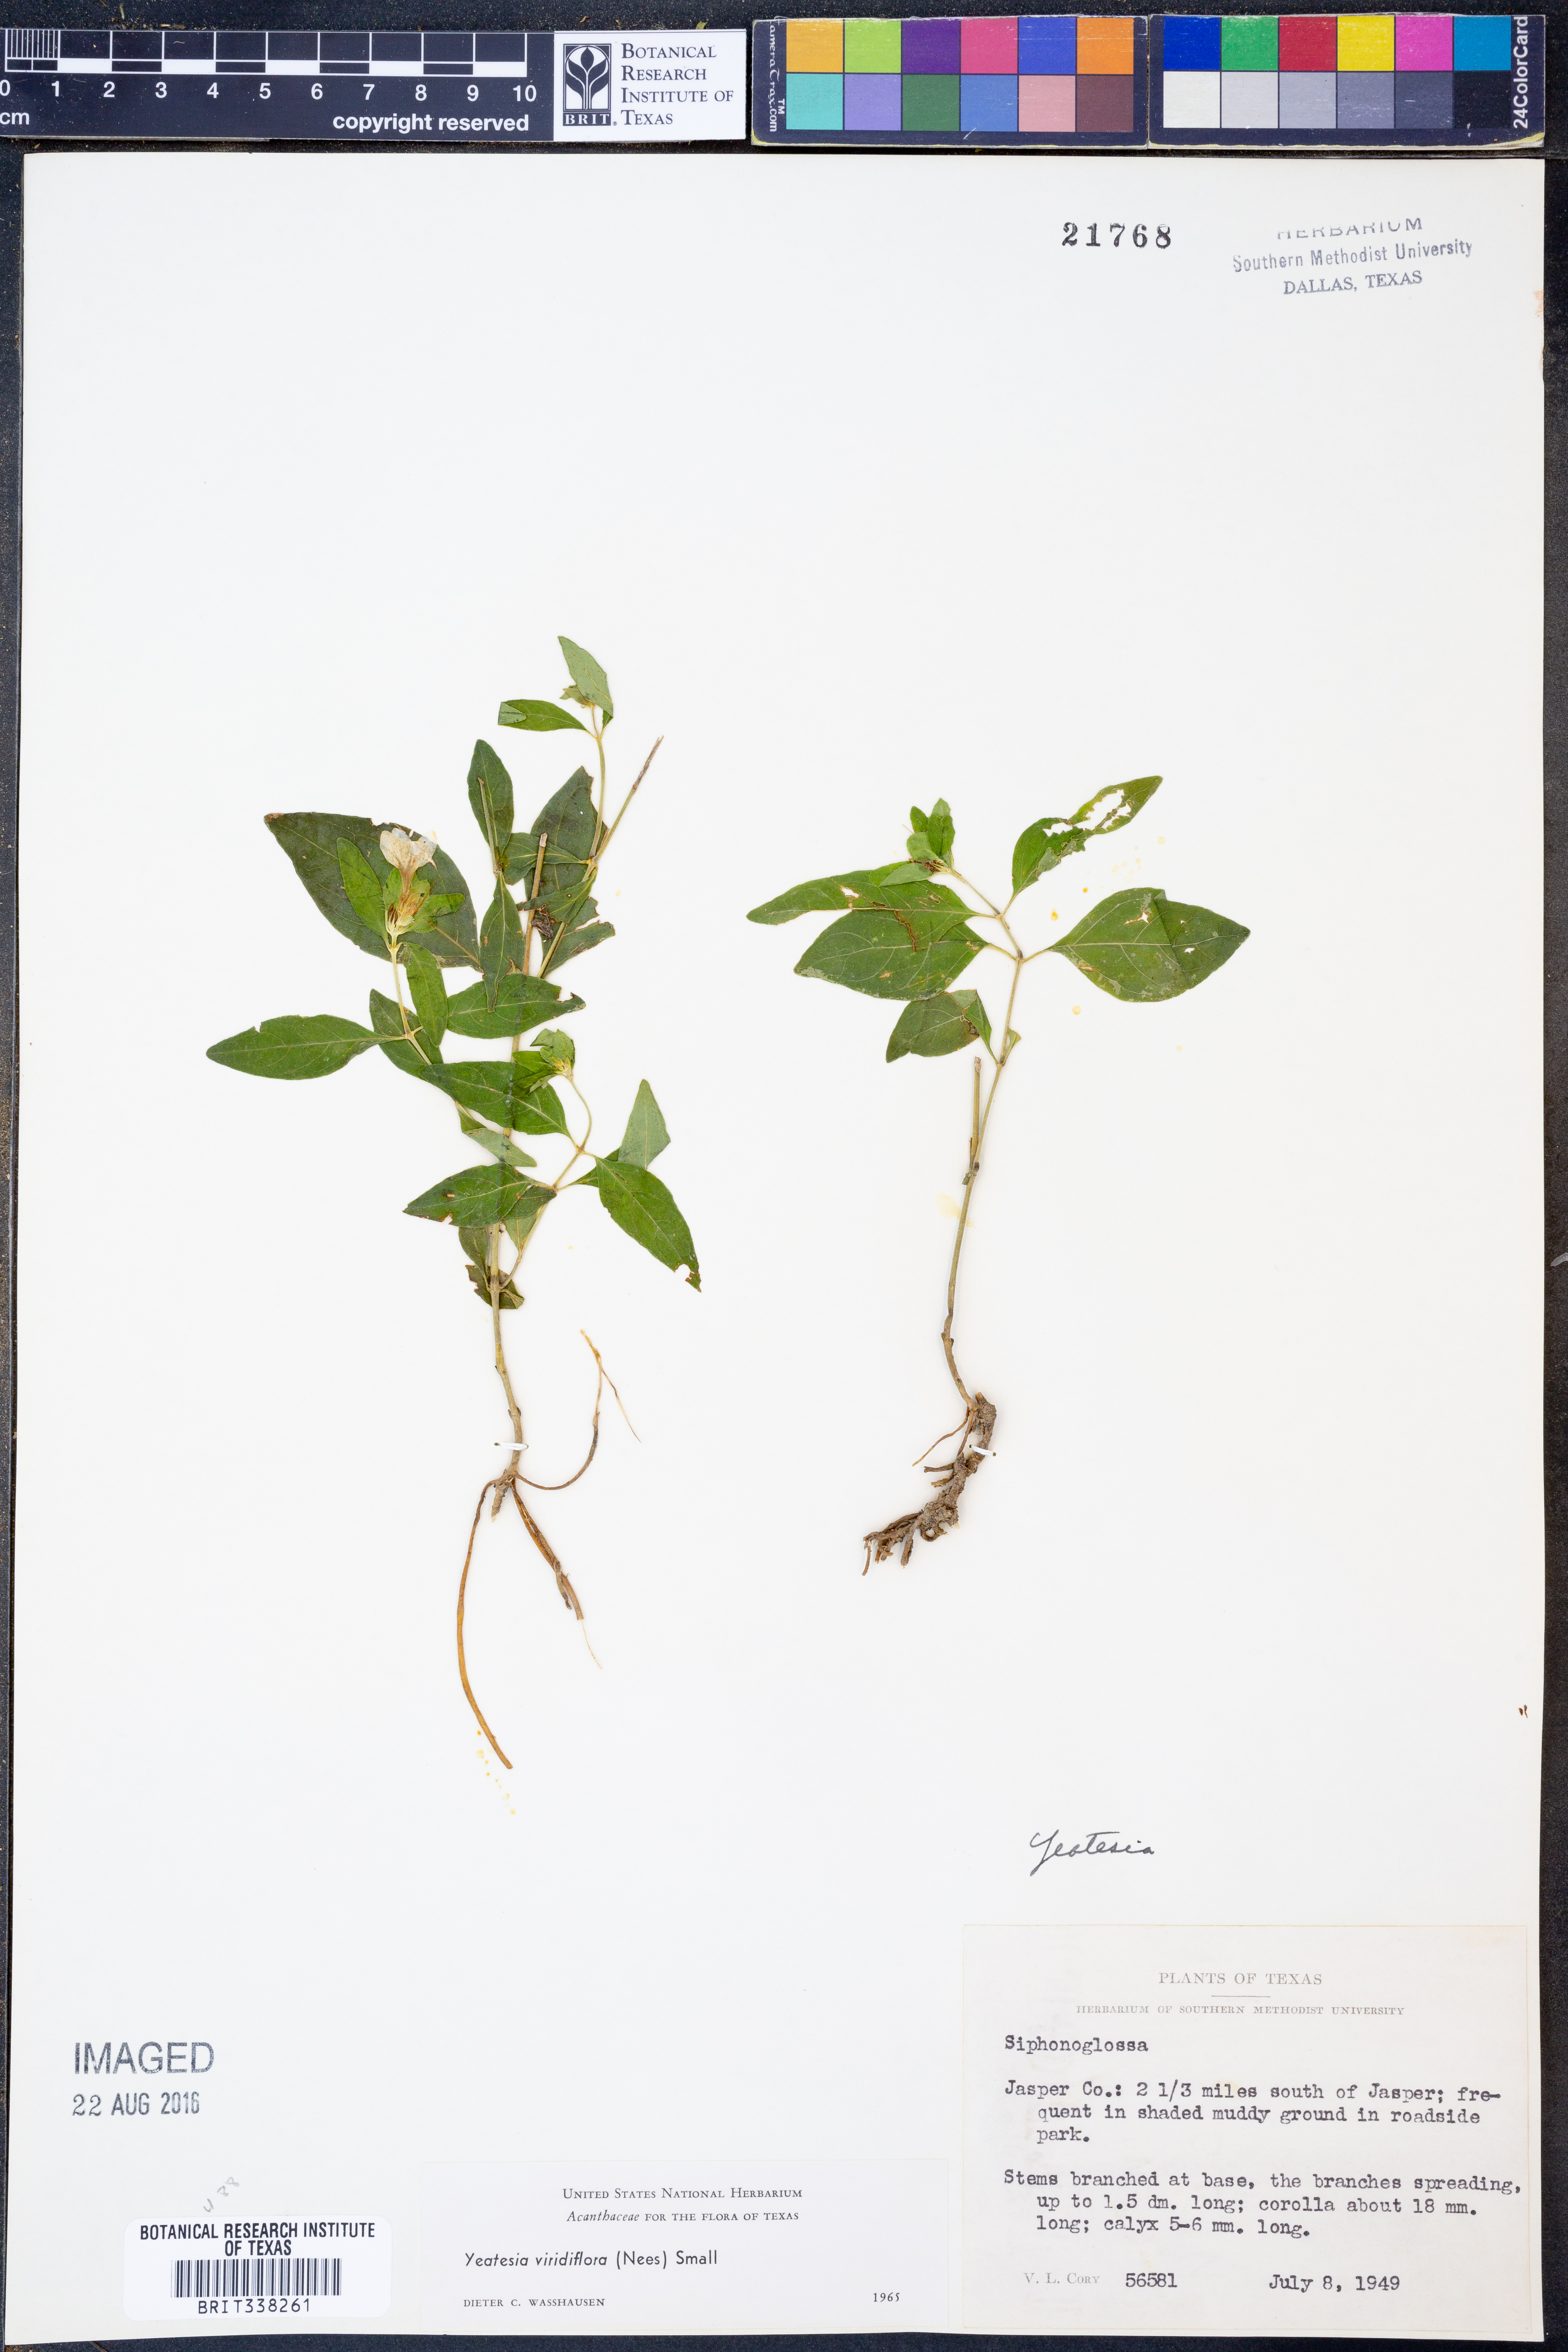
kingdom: Plantae
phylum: Tracheophyta
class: Magnoliopsida
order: Lamiales
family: Acanthaceae
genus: Yeatesia
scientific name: Yeatesia viridiflora
